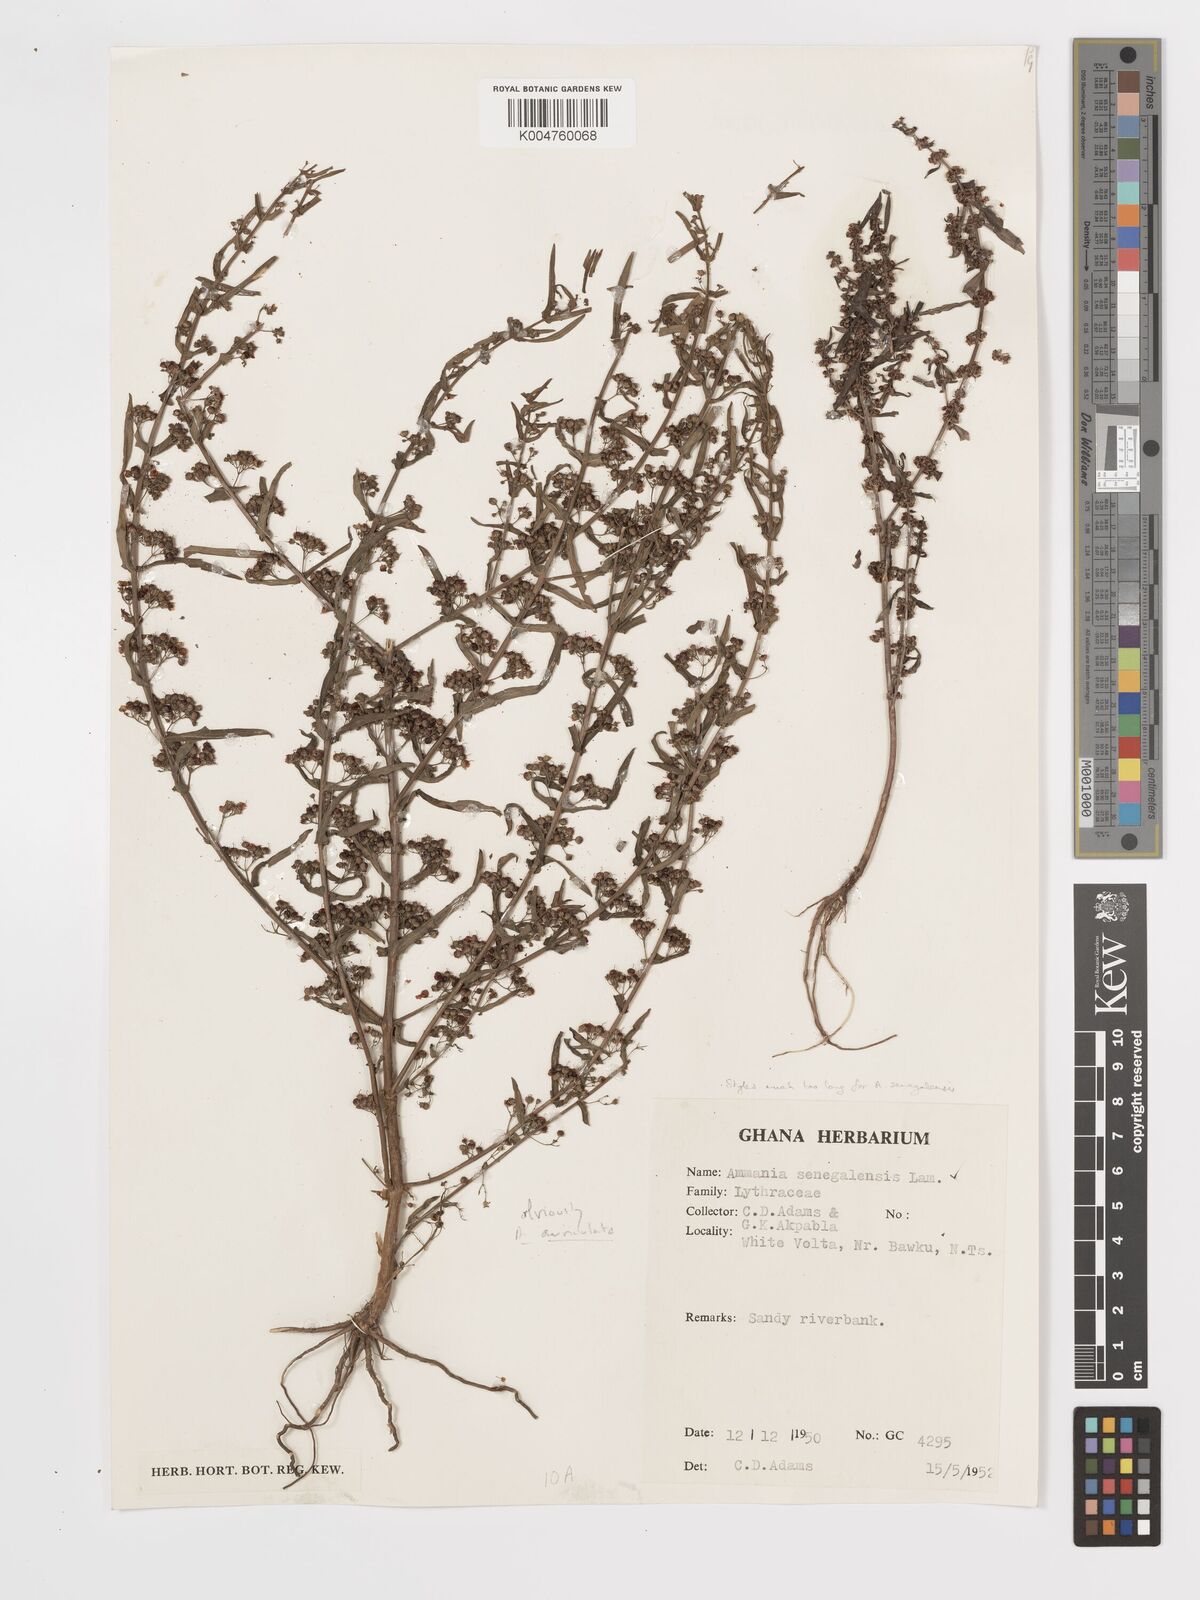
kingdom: Plantae
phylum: Tracheophyta
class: Magnoliopsida
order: Myrtales
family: Lythraceae
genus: Ammannia
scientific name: Ammannia auriculata
